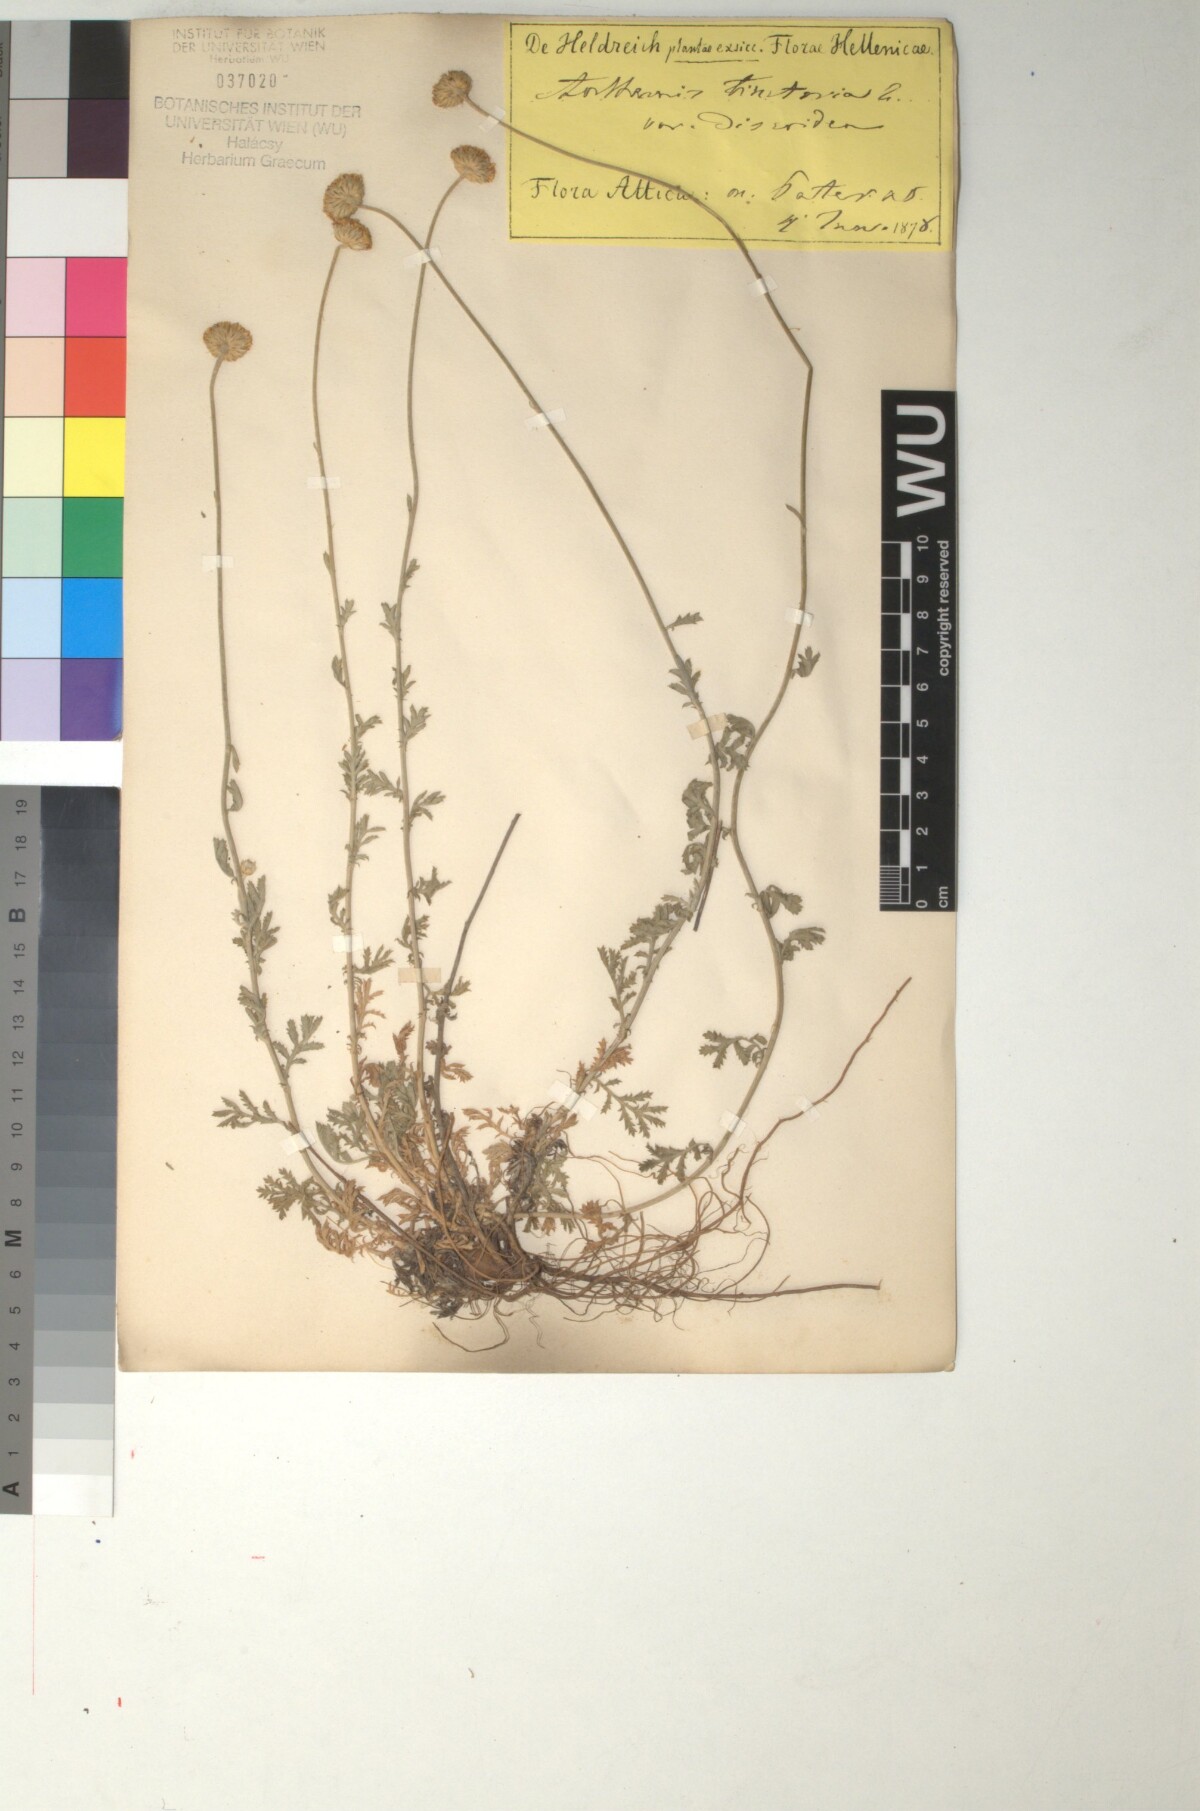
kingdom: Plantae
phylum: Tracheophyta
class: Magnoliopsida
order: Asterales
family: Asteraceae
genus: Cota
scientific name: Cota tinctoria
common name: Golden chamomile
